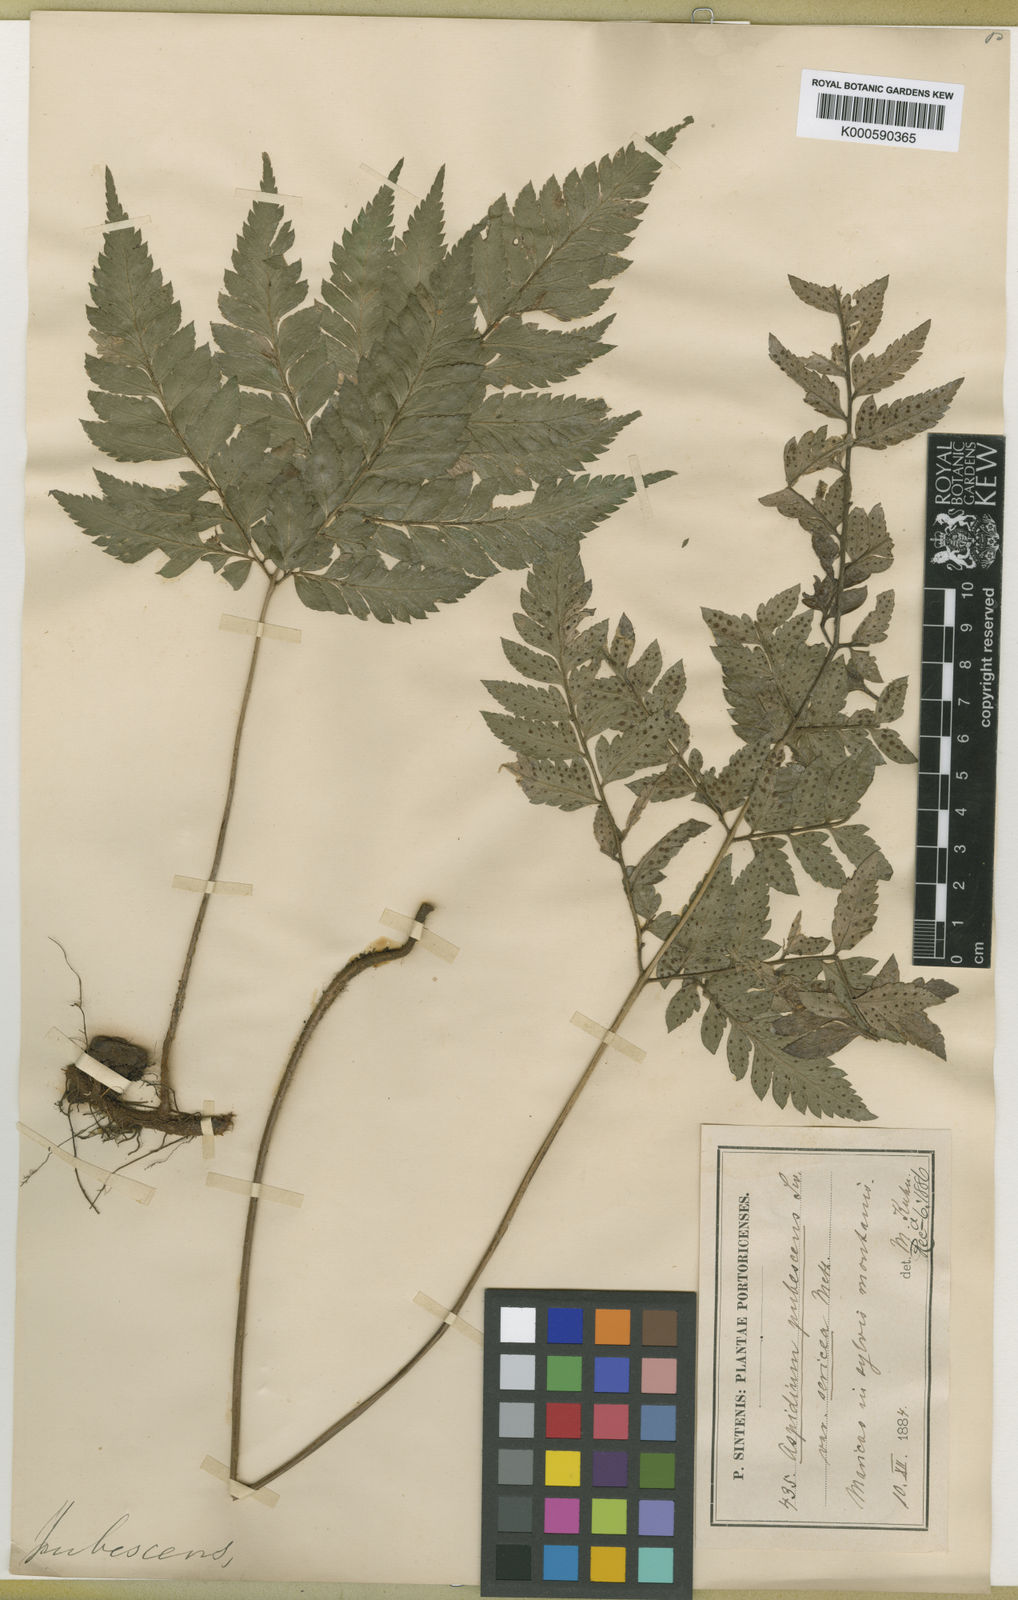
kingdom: Plantae
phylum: Tracheophyta
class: Polypodiopsida
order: Polypodiales
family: Dryopteridaceae
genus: Polystichopsis
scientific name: Polystichopsis chaerophylloides
